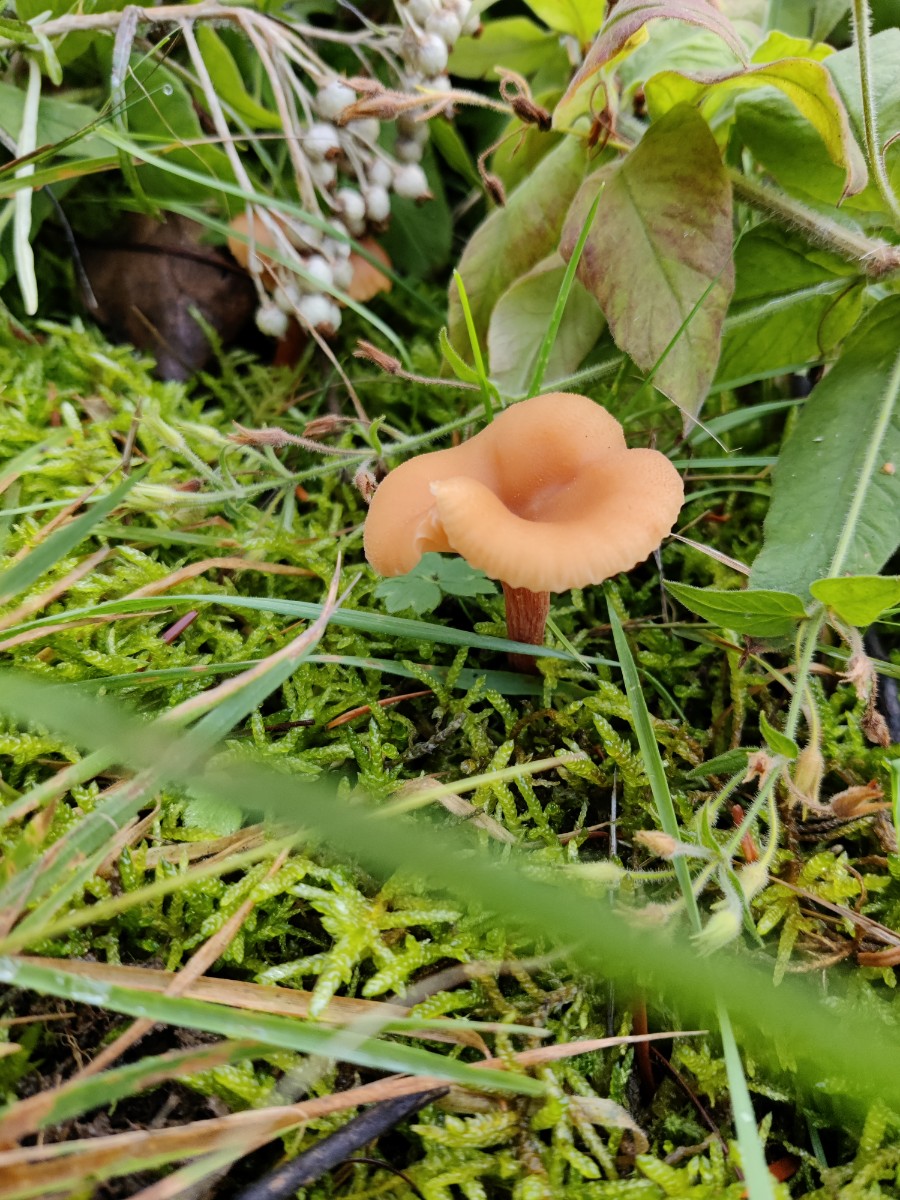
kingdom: Fungi
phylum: Basidiomycota
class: Agaricomycetes
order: Agaricales
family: Hydnangiaceae
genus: Laccaria
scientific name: Laccaria laccata
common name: rød ametysthat
